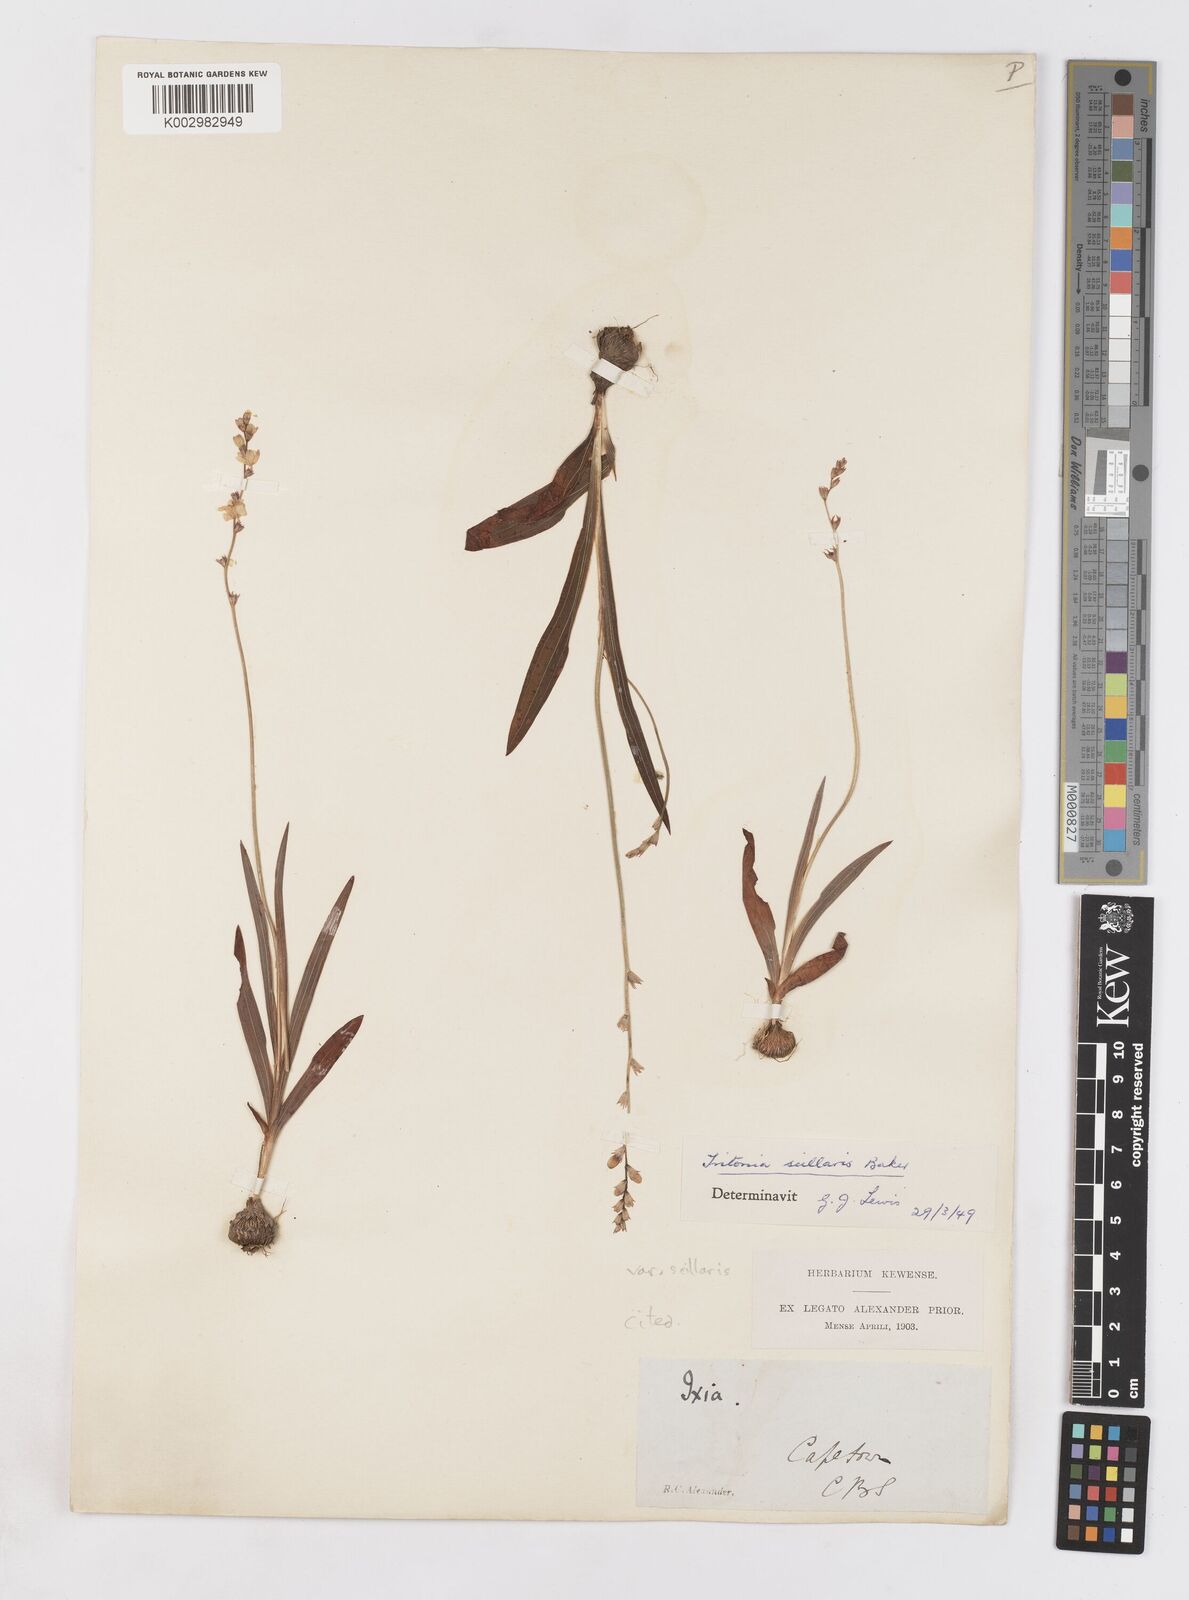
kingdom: Plantae
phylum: Tracheophyta
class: Liliopsida
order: Asparagales
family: Iridaceae
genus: Ixia
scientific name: Ixia scillaris
